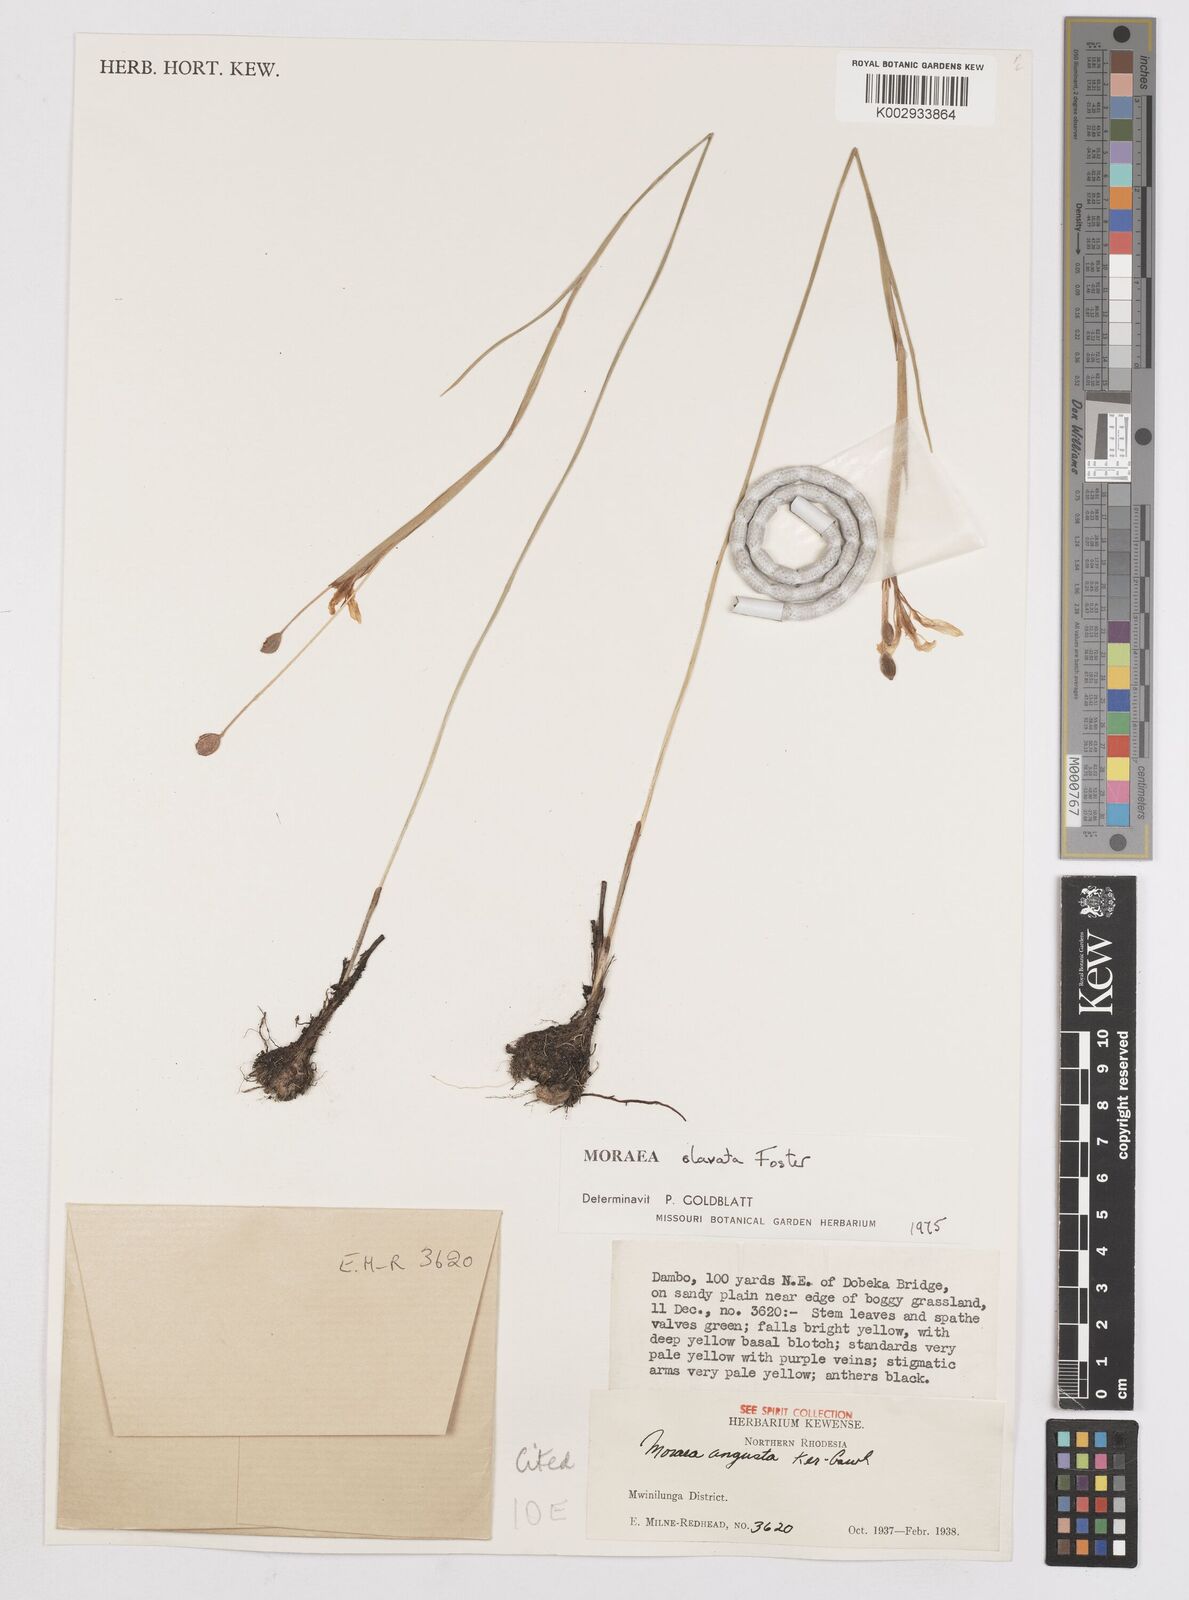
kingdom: Plantae
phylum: Tracheophyta
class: Liliopsida
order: Asparagales
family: Iridaceae
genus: Moraea
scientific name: Moraea clavata
